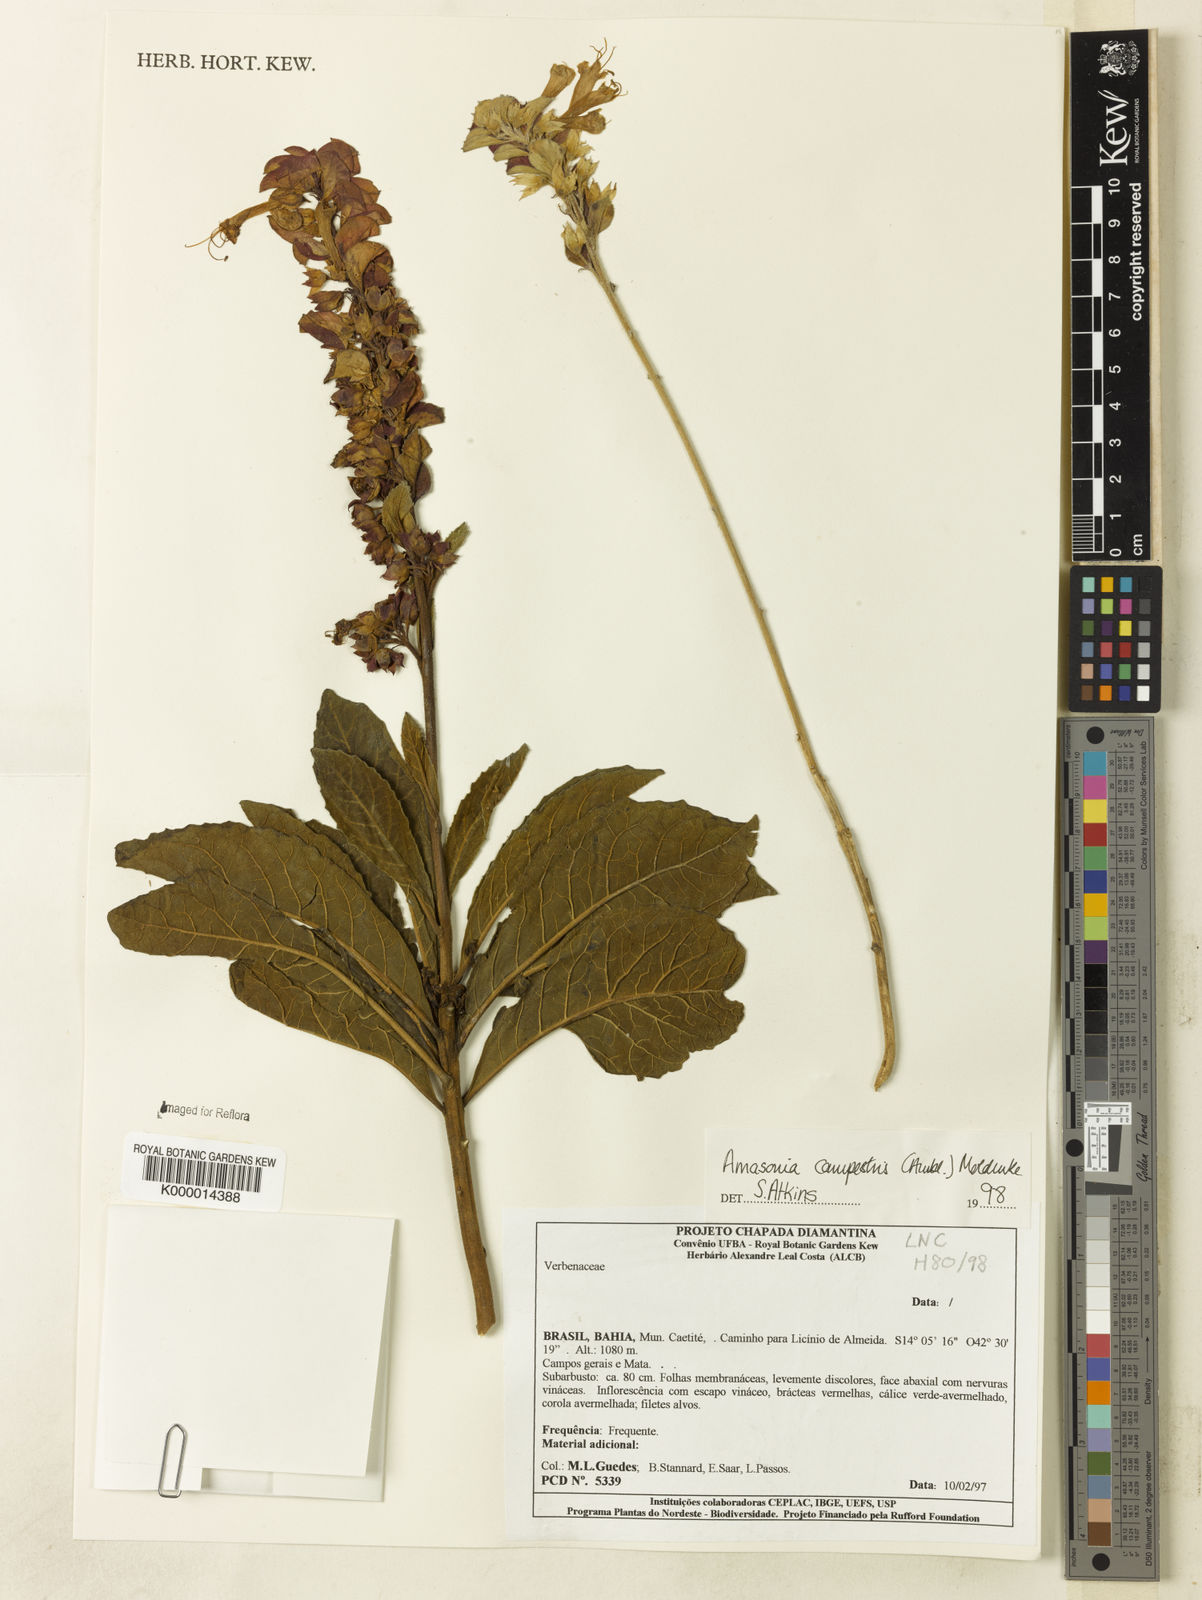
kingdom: Plantae
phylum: Tracheophyta
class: Magnoliopsida
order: Lamiales
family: Lamiaceae
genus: Amasonia
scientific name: Amasonia campestris
